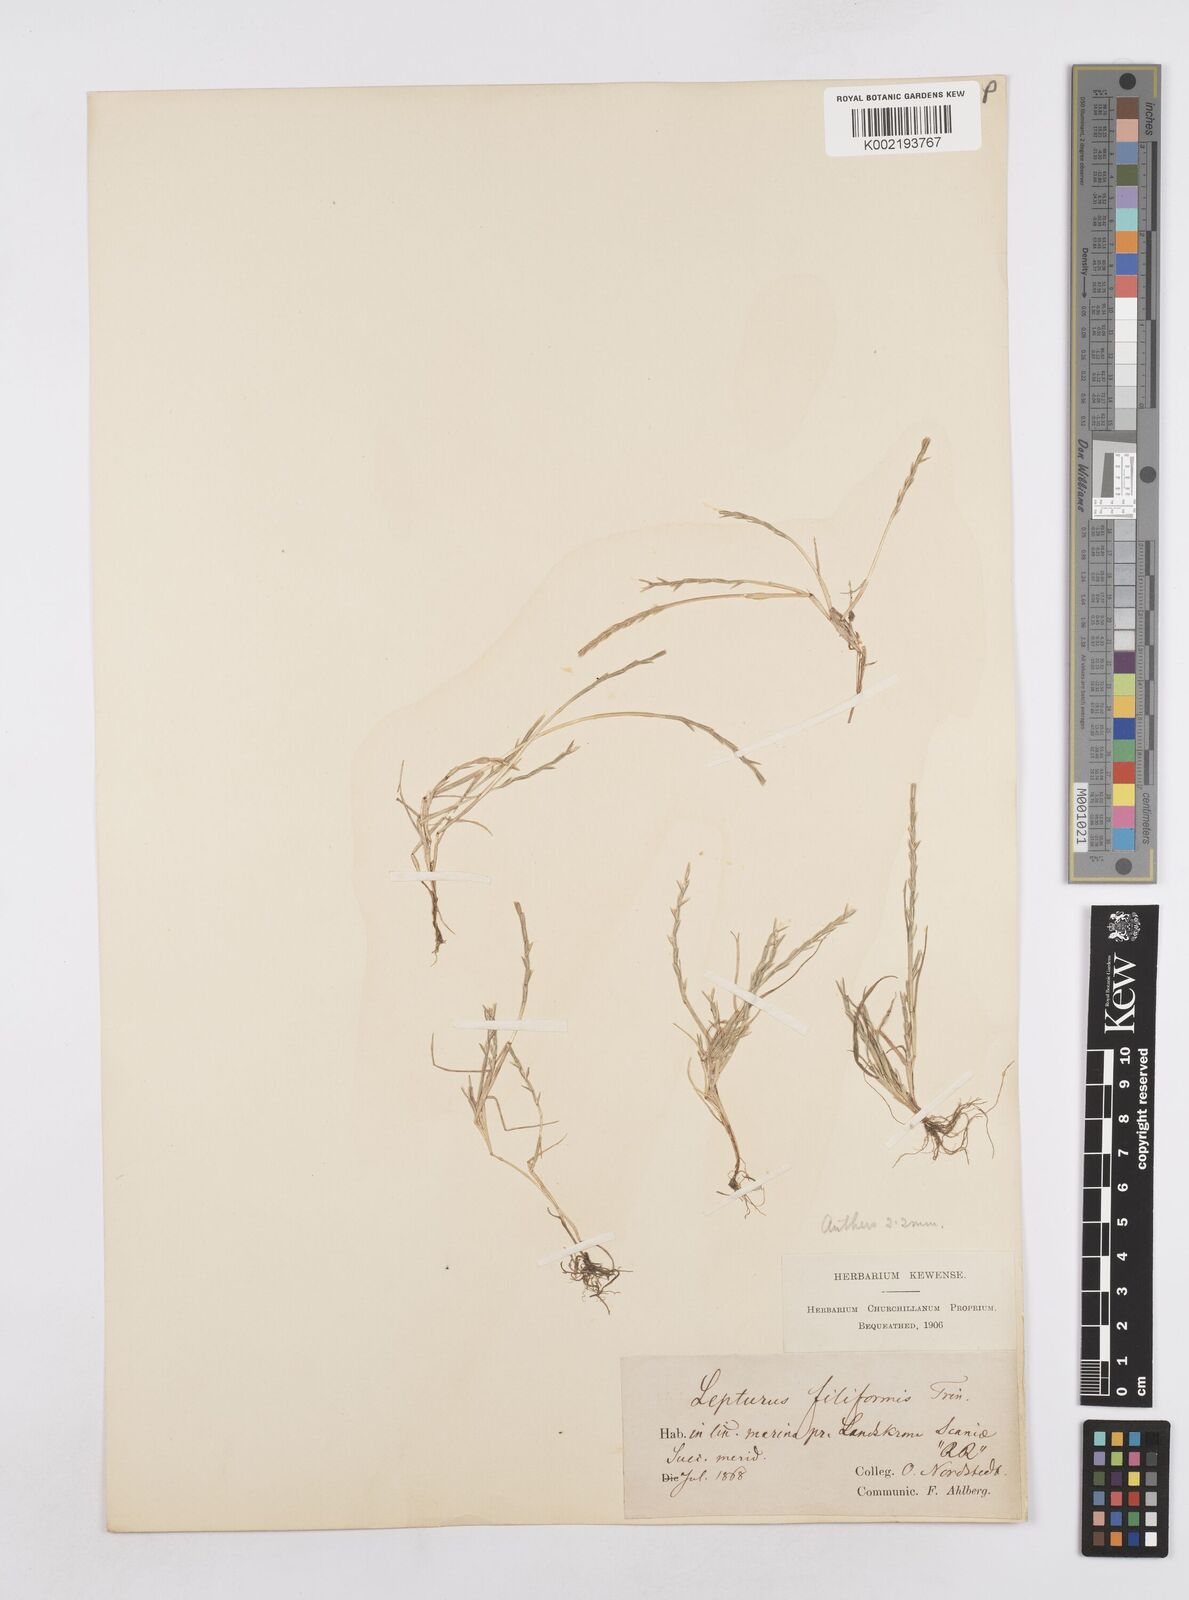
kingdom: Plantae
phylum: Tracheophyta
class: Liliopsida
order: Poales
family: Poaceae
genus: Parapholis
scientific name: Parapholis
